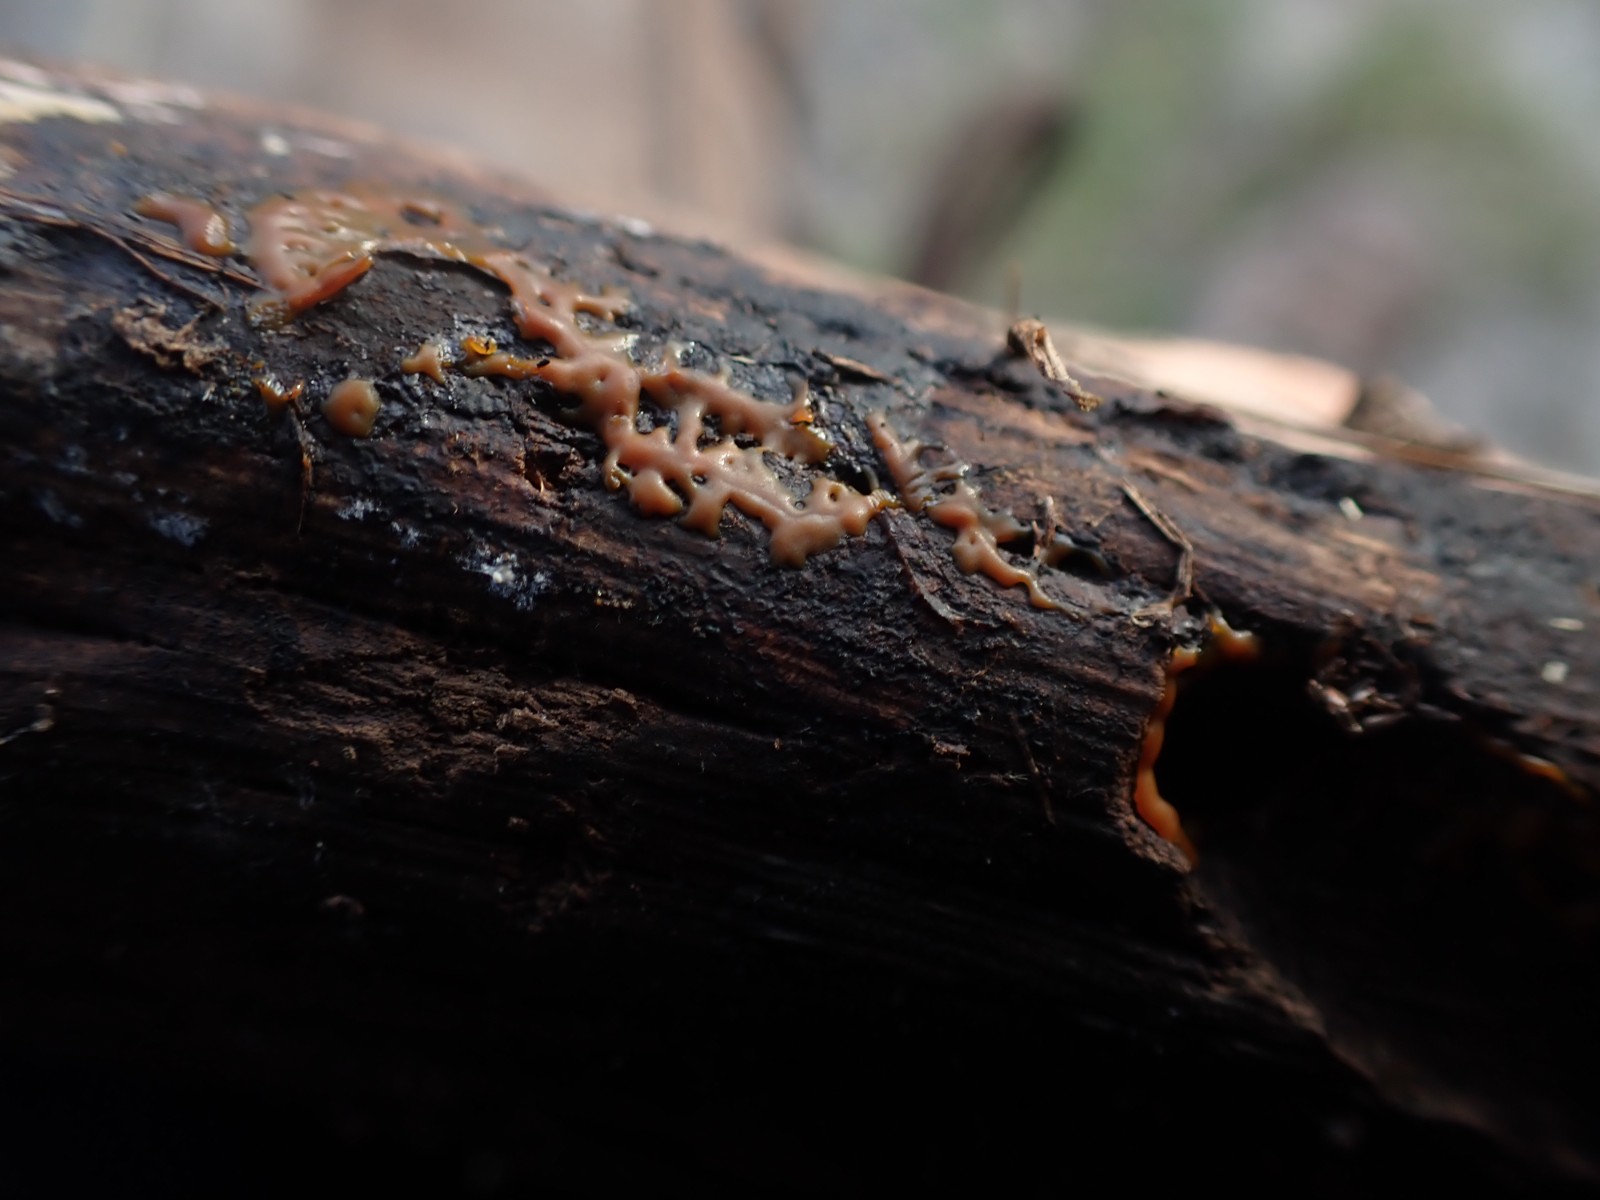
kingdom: Protozoa
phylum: Mycetozoa
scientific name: Mycetozoa
